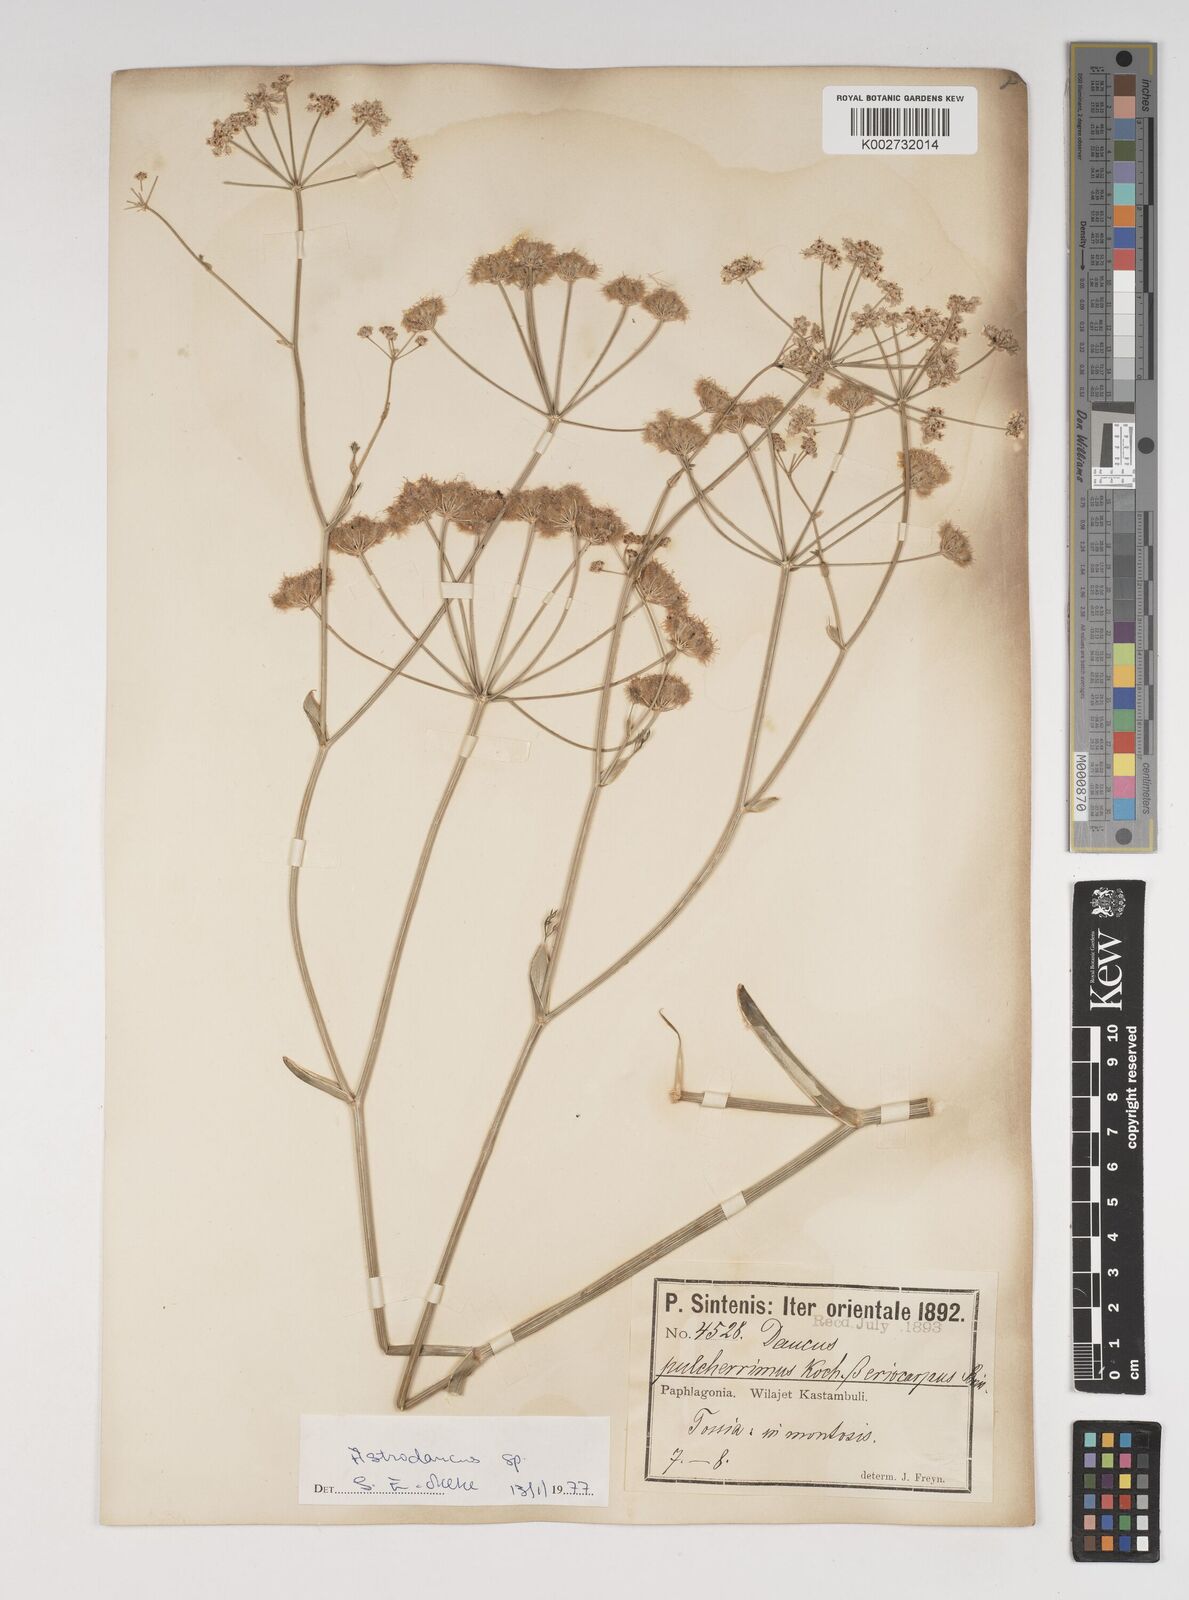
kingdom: Plantae
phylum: Tracheophyta
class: Magnoliopsida
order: Apiales
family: Apiaceae
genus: Astrodaucus
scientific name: Astrodaucus
